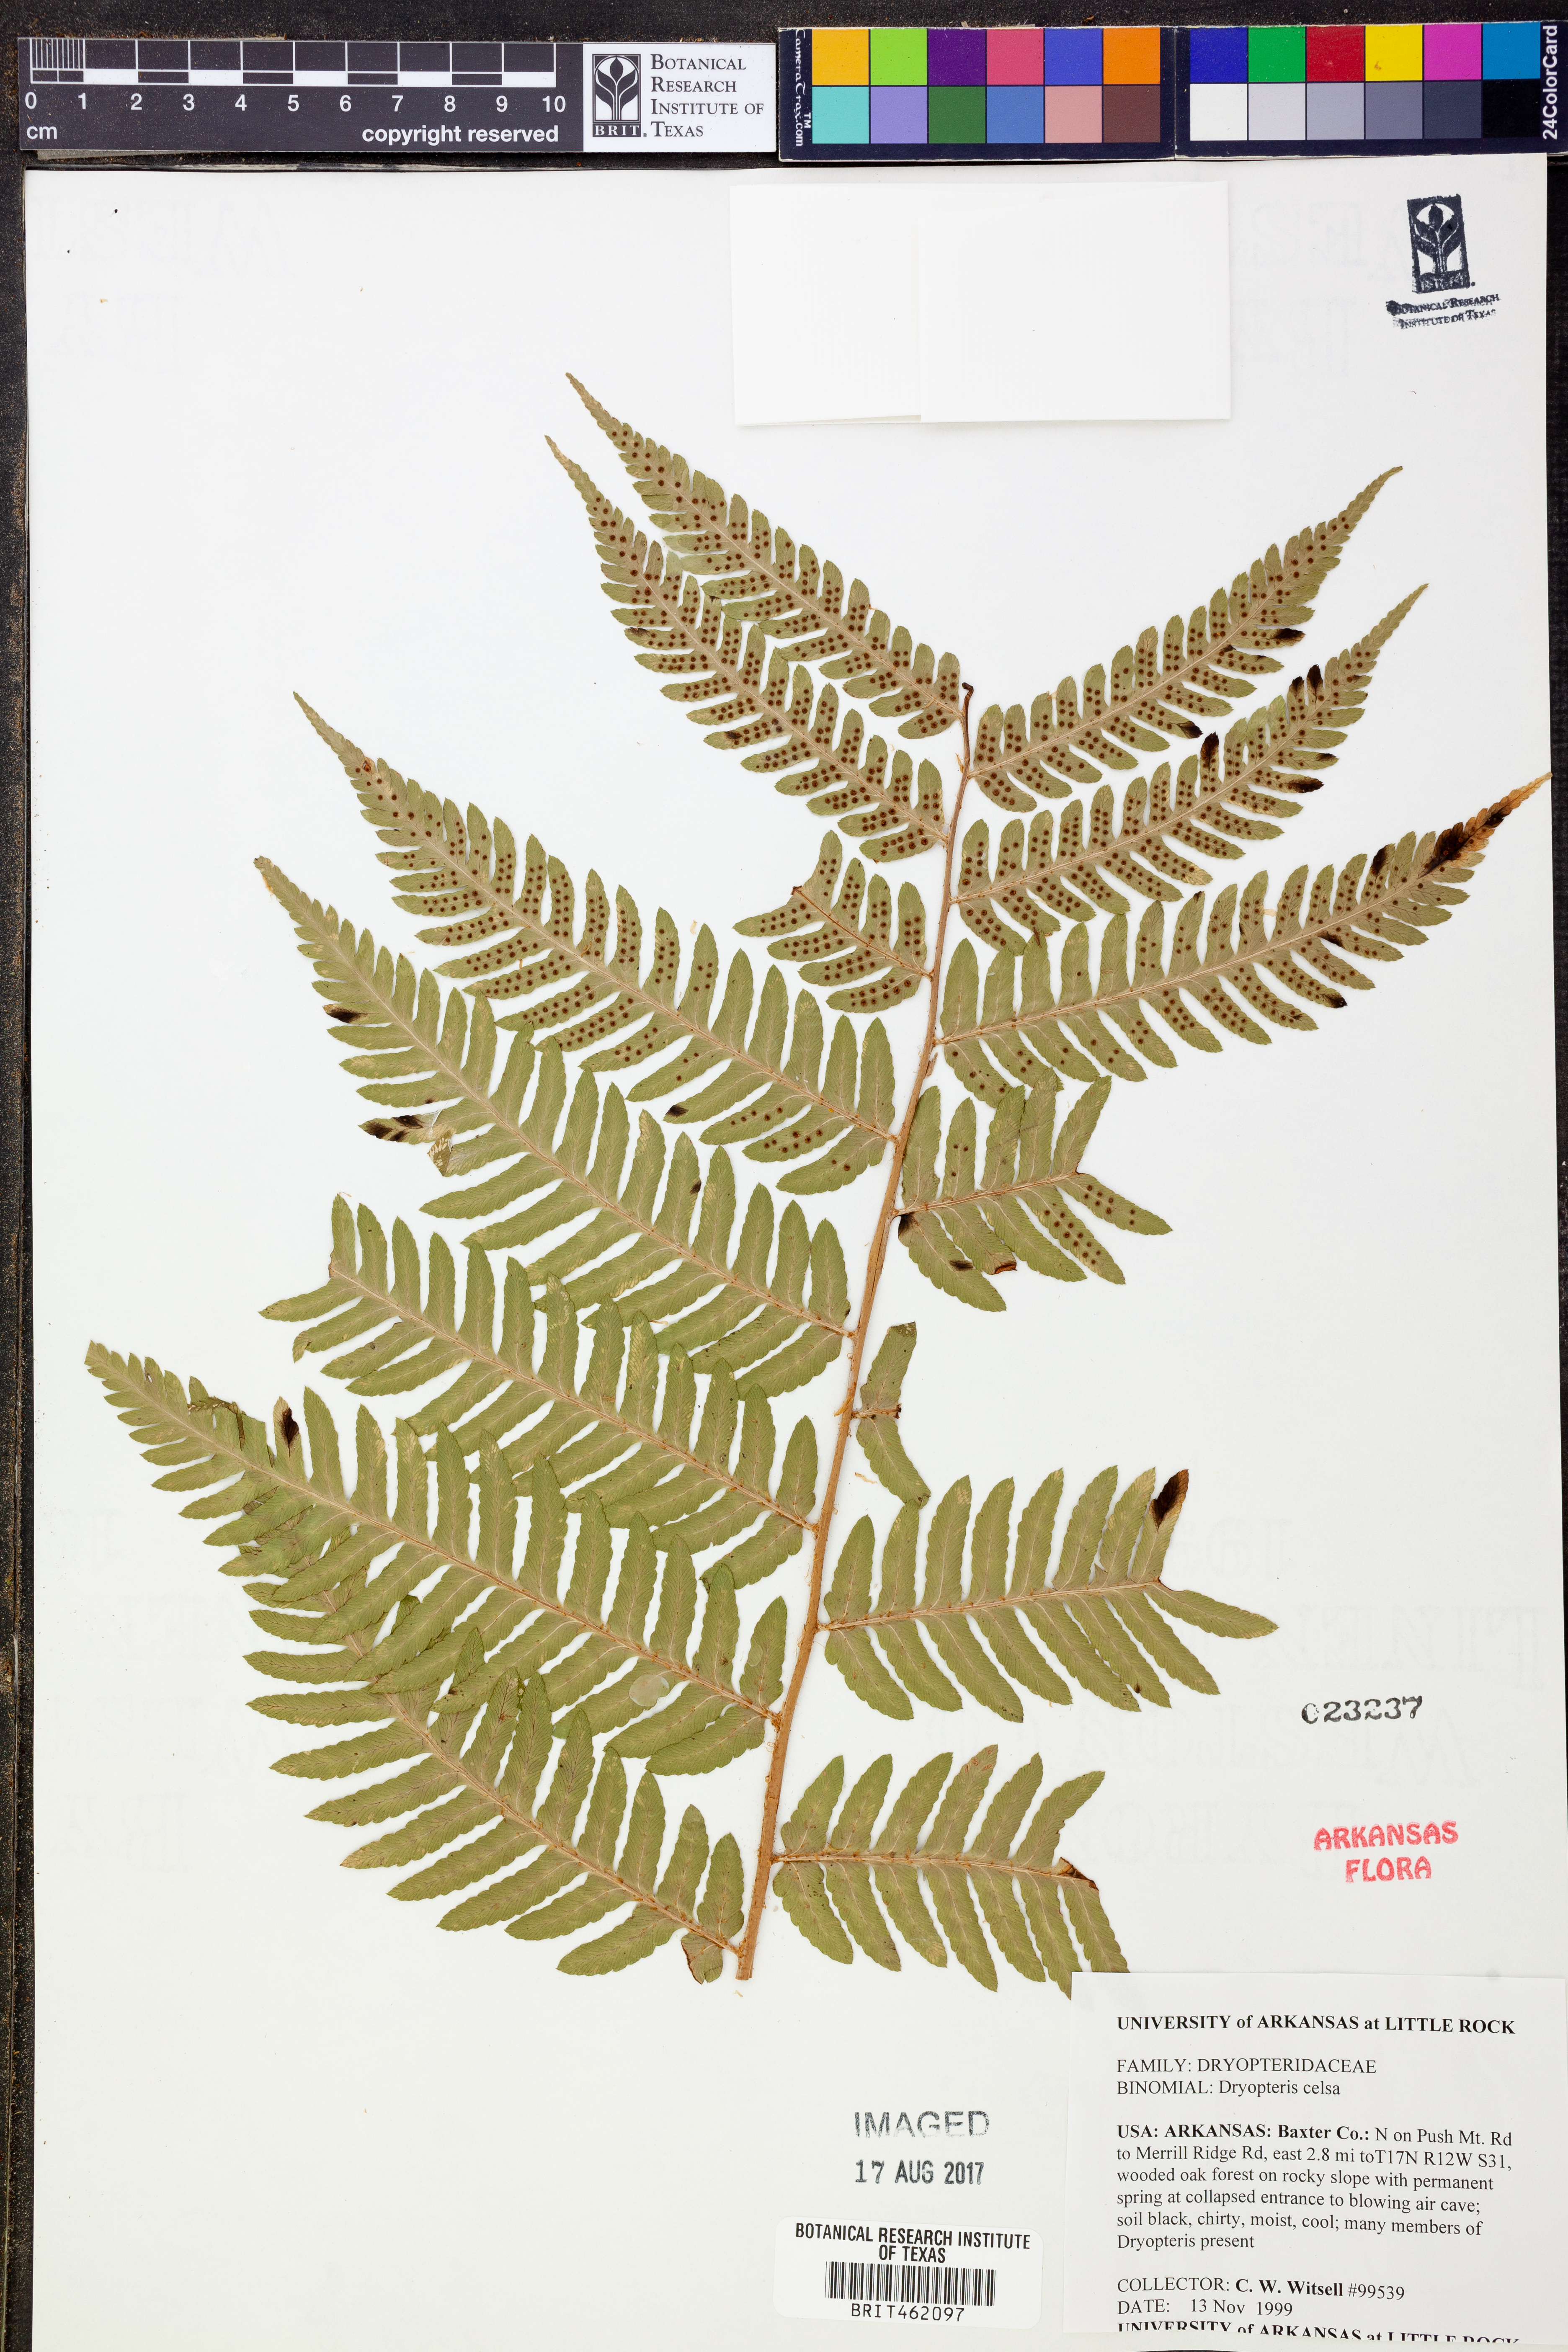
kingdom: Plantae
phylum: Tracheophyta
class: Polypodiopsida
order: Polypodiales
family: Dryopteridaceae
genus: Dryopteris
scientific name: Dryopteris celsa
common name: Log fern
